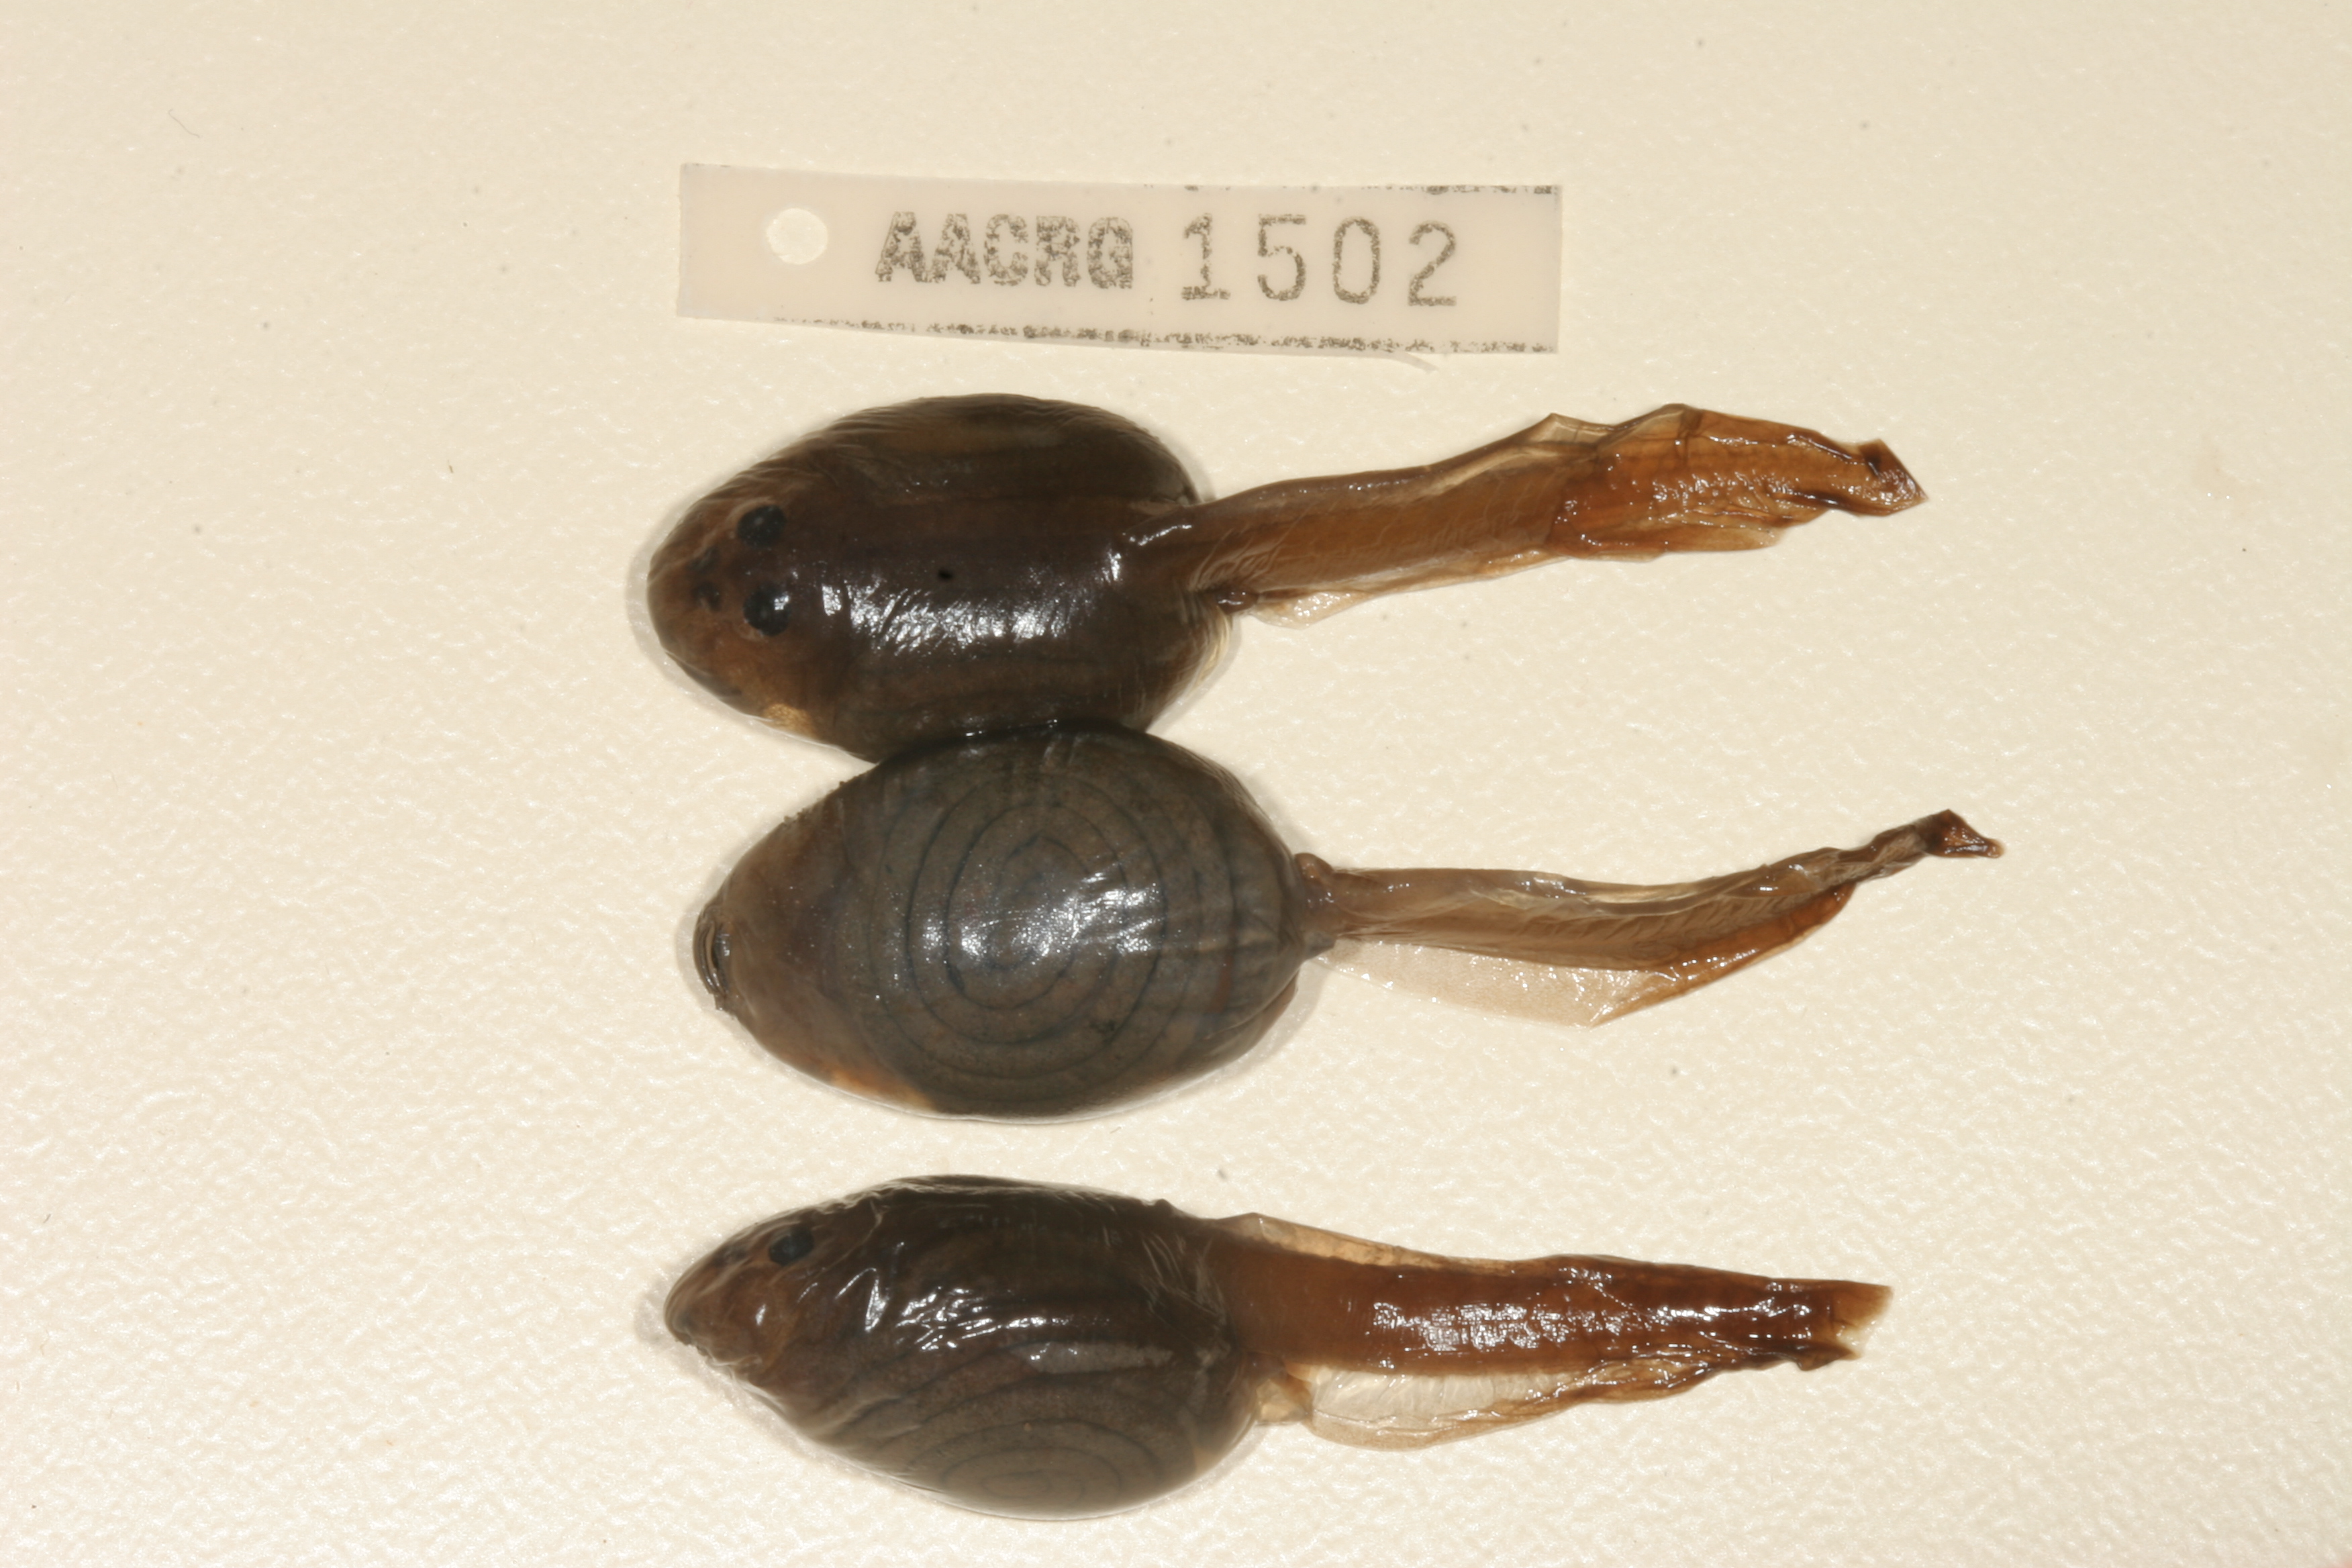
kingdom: Animalia
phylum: Chordata
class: Amphibia
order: Anura
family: Pyxicephalidae
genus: Pyxicephalus
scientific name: Pyxicephalus edulis
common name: Peter's bullfrog
